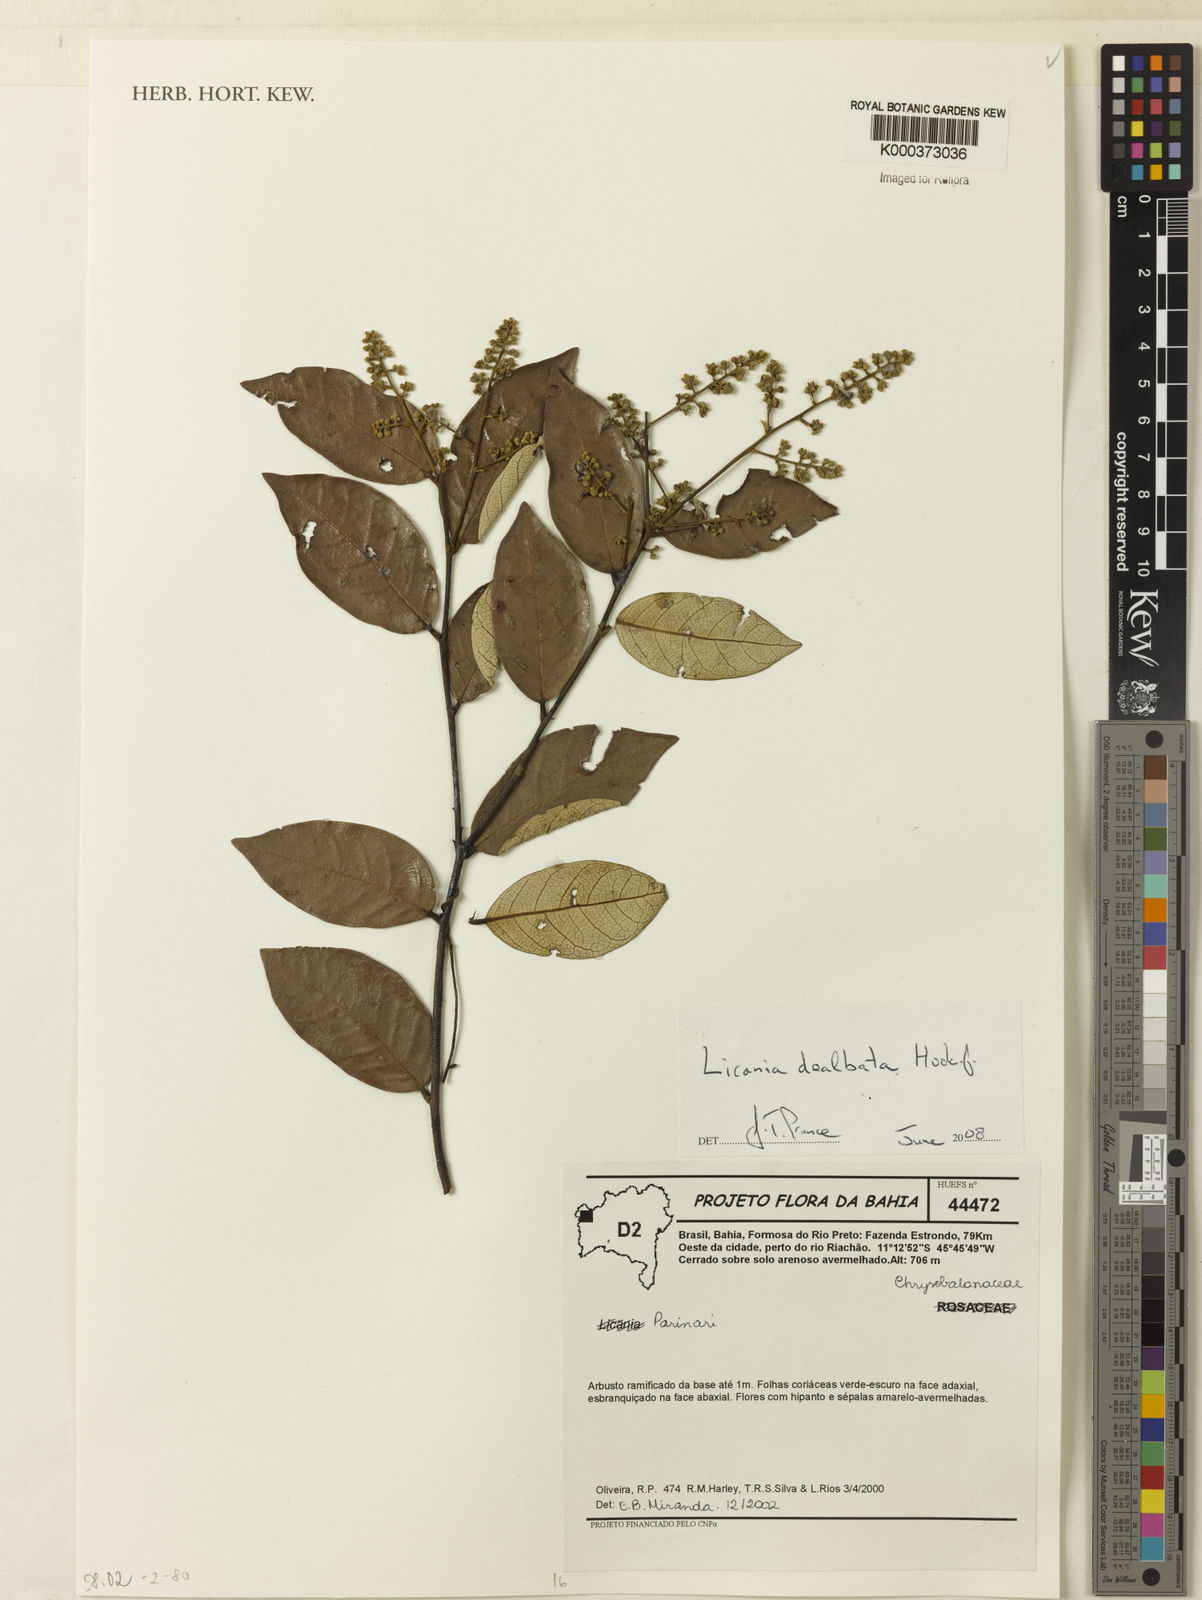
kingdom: Plantae
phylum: Tracheophyta
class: Magnoliopsida
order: Malpighiales
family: Chrysobalanaceae
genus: Licania
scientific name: Licania dealbata
